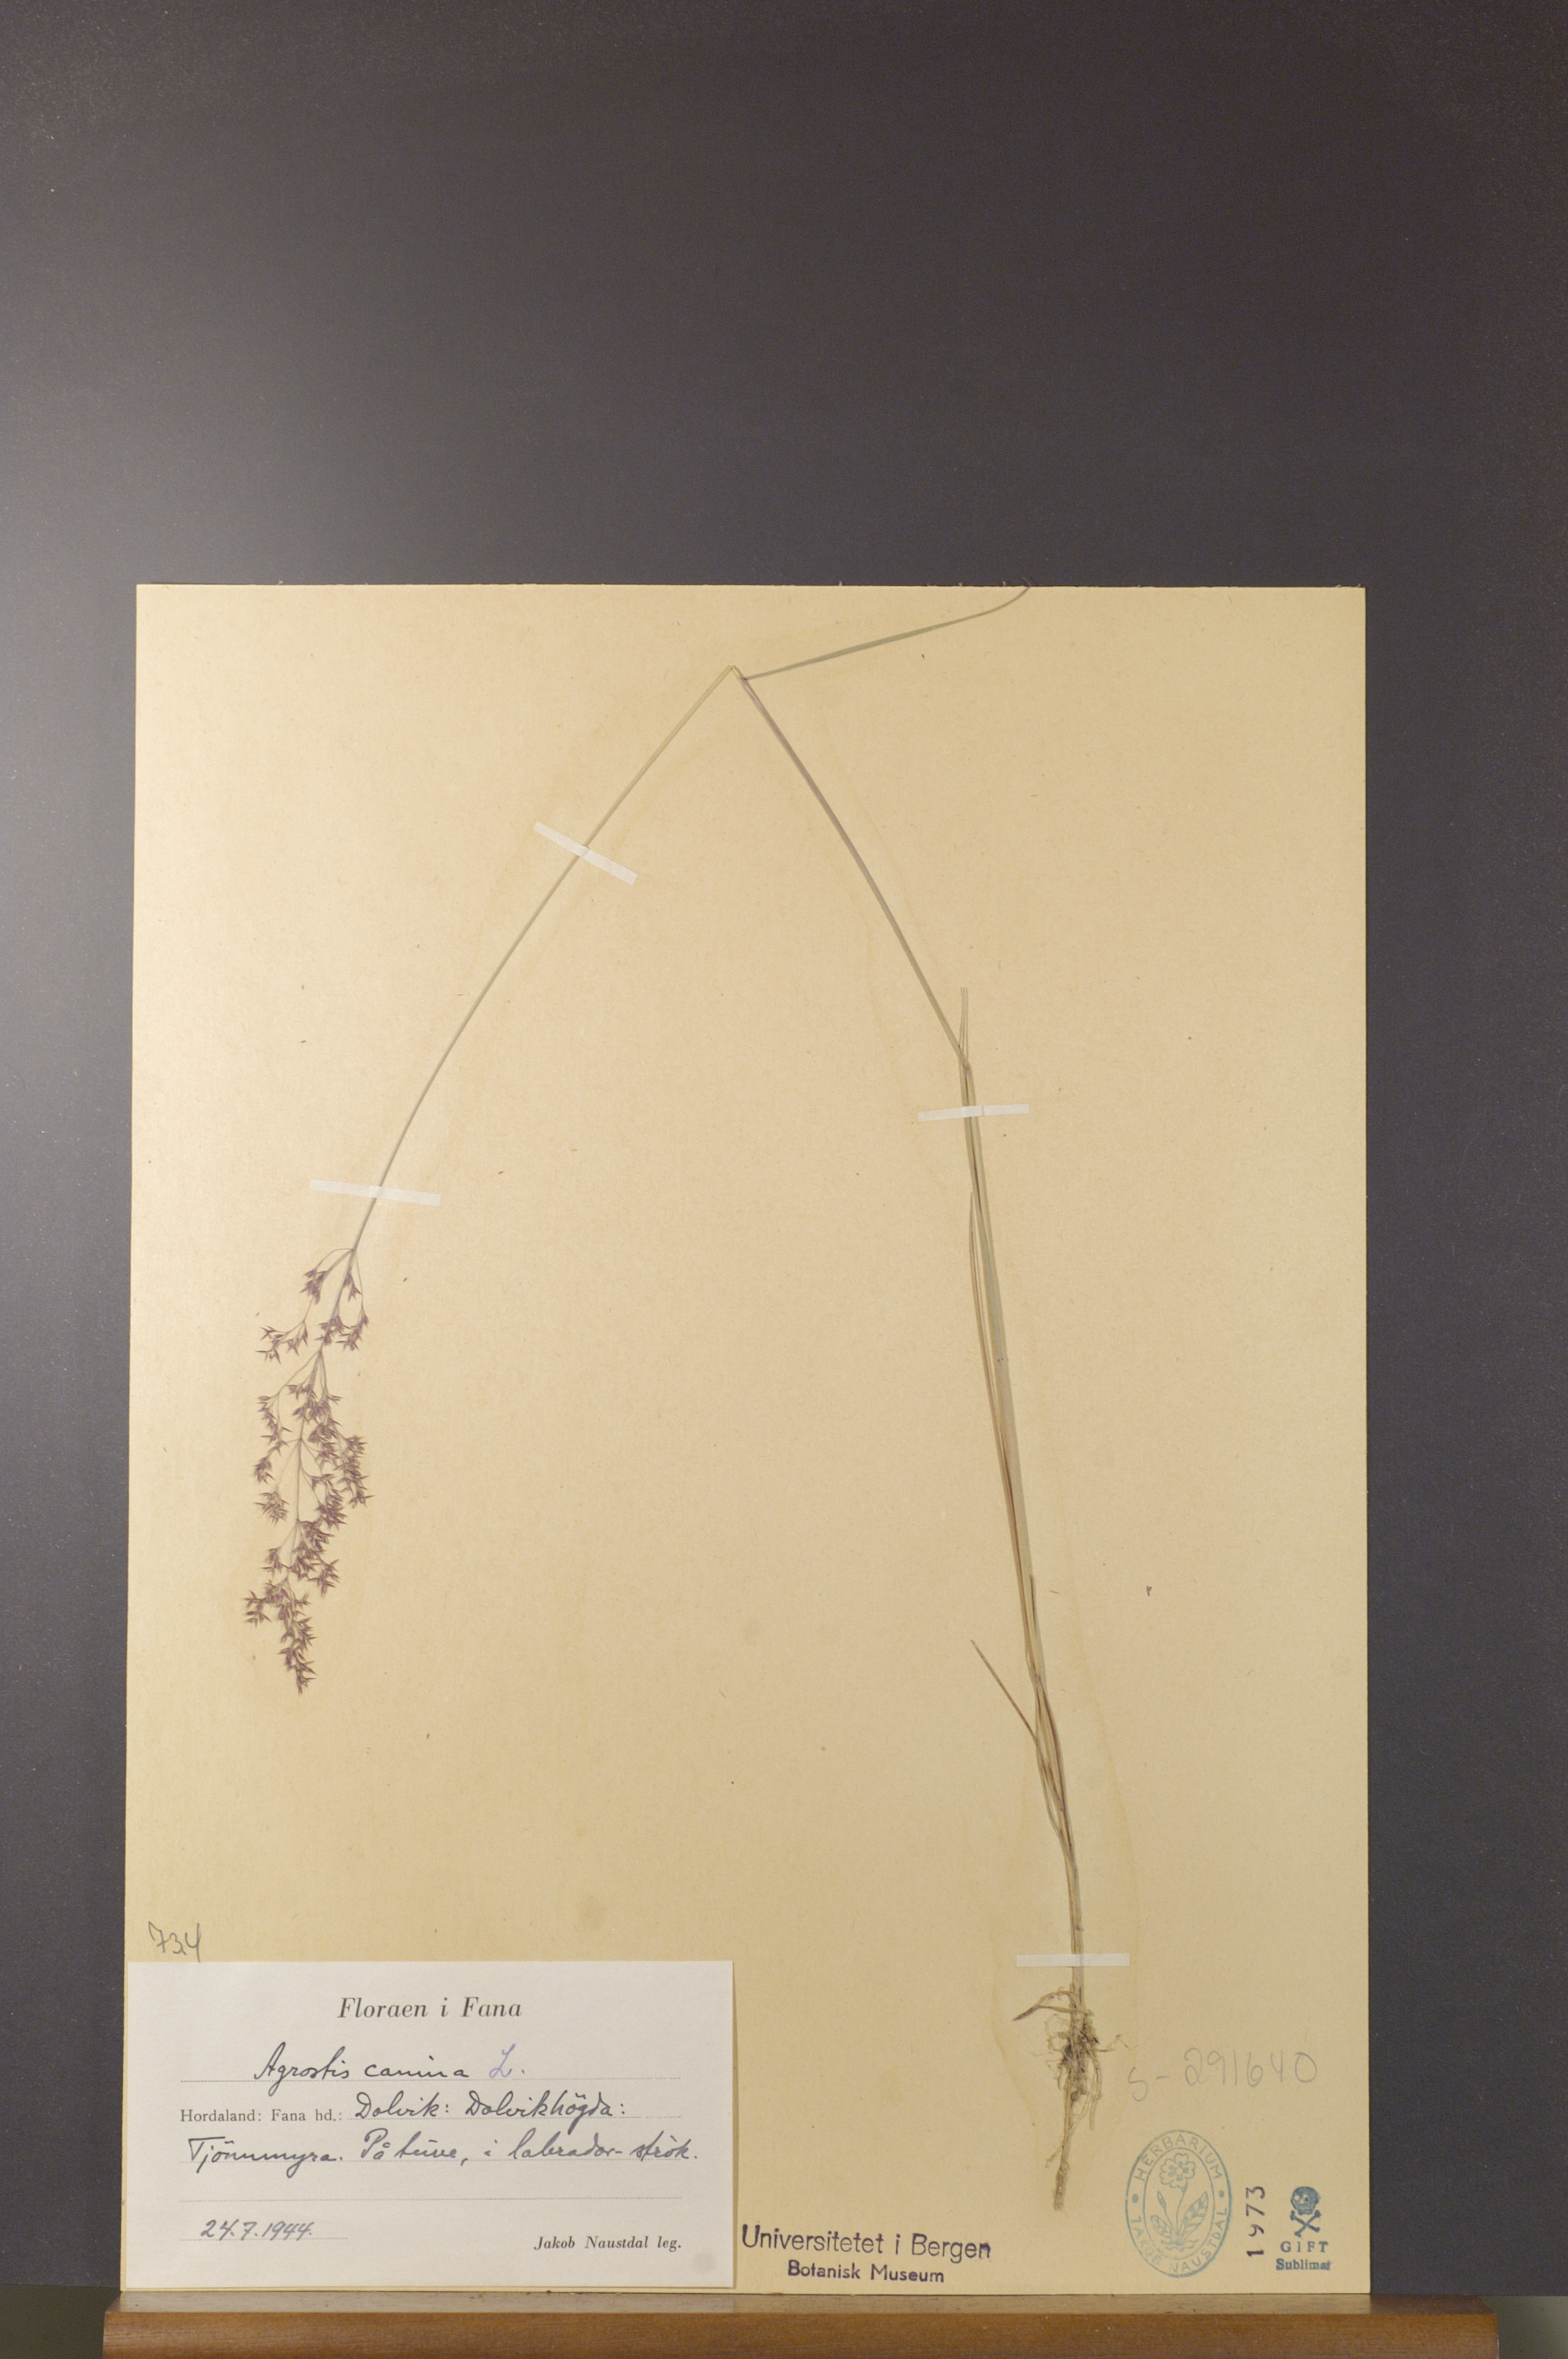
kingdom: Plantae
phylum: Tracheophyta
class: Liliopsida
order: Poales
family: Poaceae
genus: Agrostis
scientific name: Agrostis canina
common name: Velvet bent
